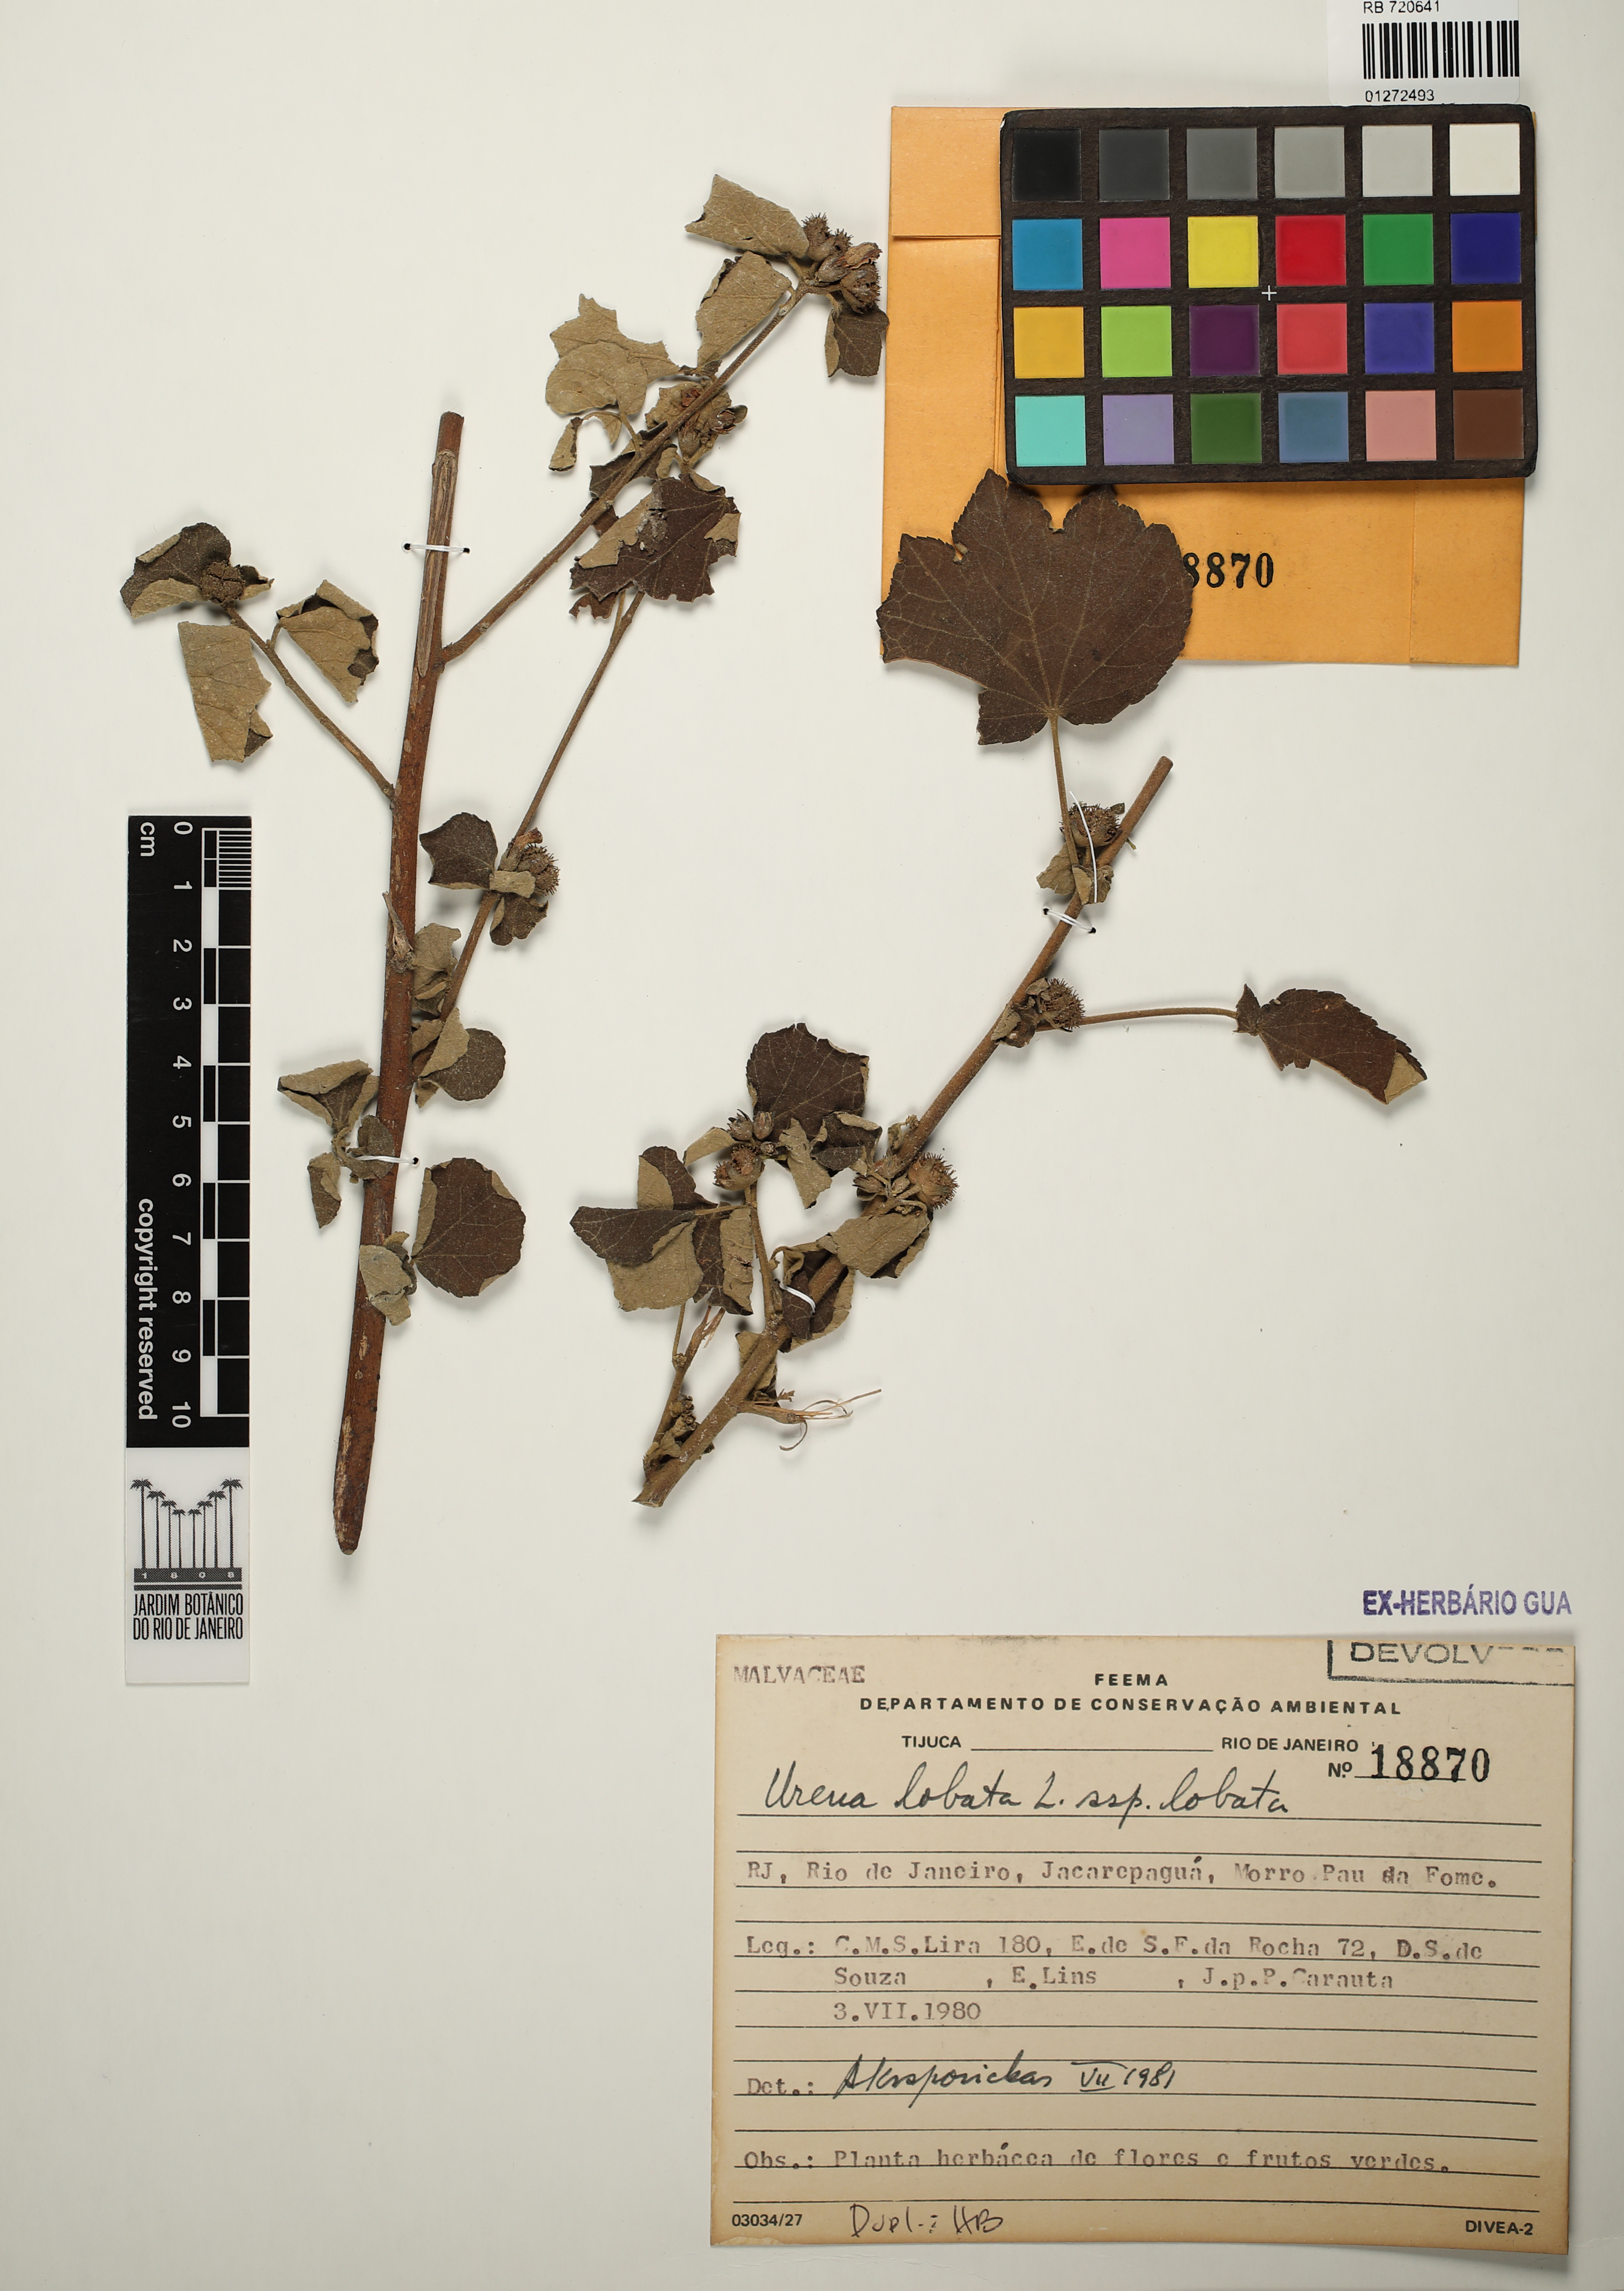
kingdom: Plantae
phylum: Tracheophyta
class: Magnoliopsida
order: Malvales
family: Malvaceae
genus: Urena
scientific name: Urena lobata
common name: Caesarweed
